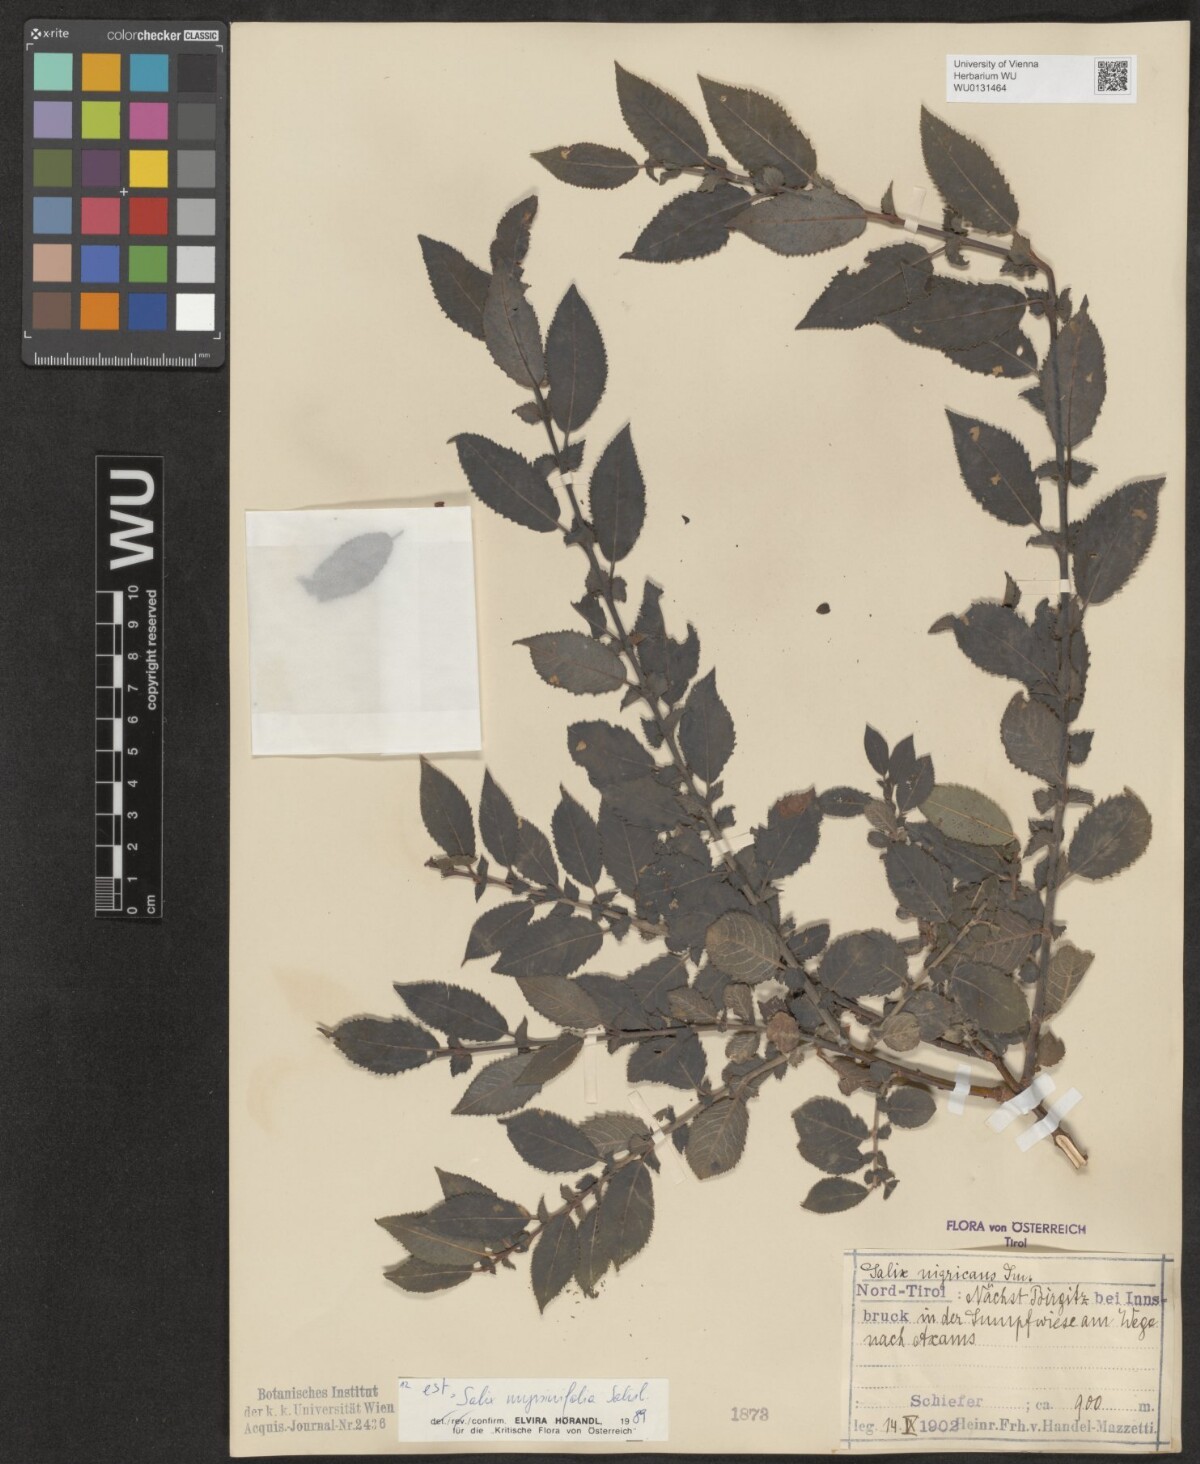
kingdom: Plantae
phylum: Tracheophyta
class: Magnoliopsida
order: Malpighiales
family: Salicaceae
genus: Salix
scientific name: Salix myrsinifolia
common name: Dark-leaved willow
